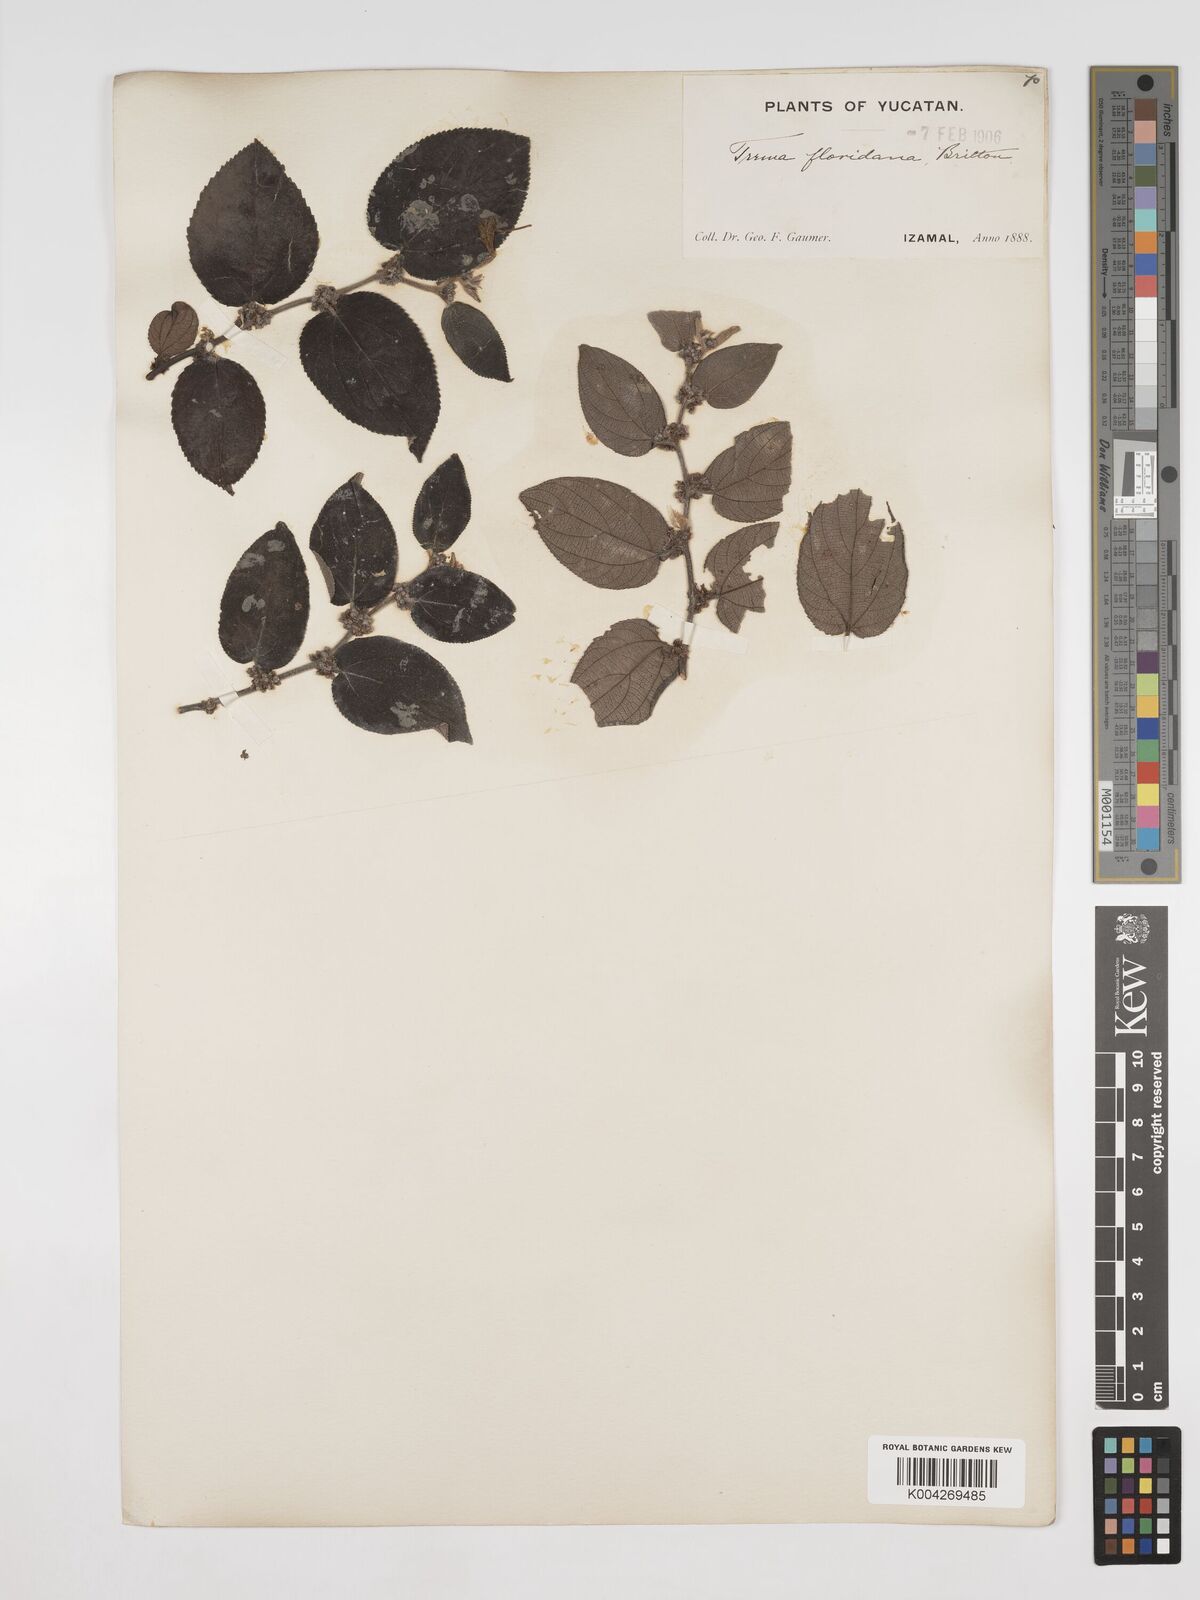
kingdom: Plantae
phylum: Tracheophyta
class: Magnoliopsida
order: Rosales
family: Cannabaceae
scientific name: Cannabaceae
